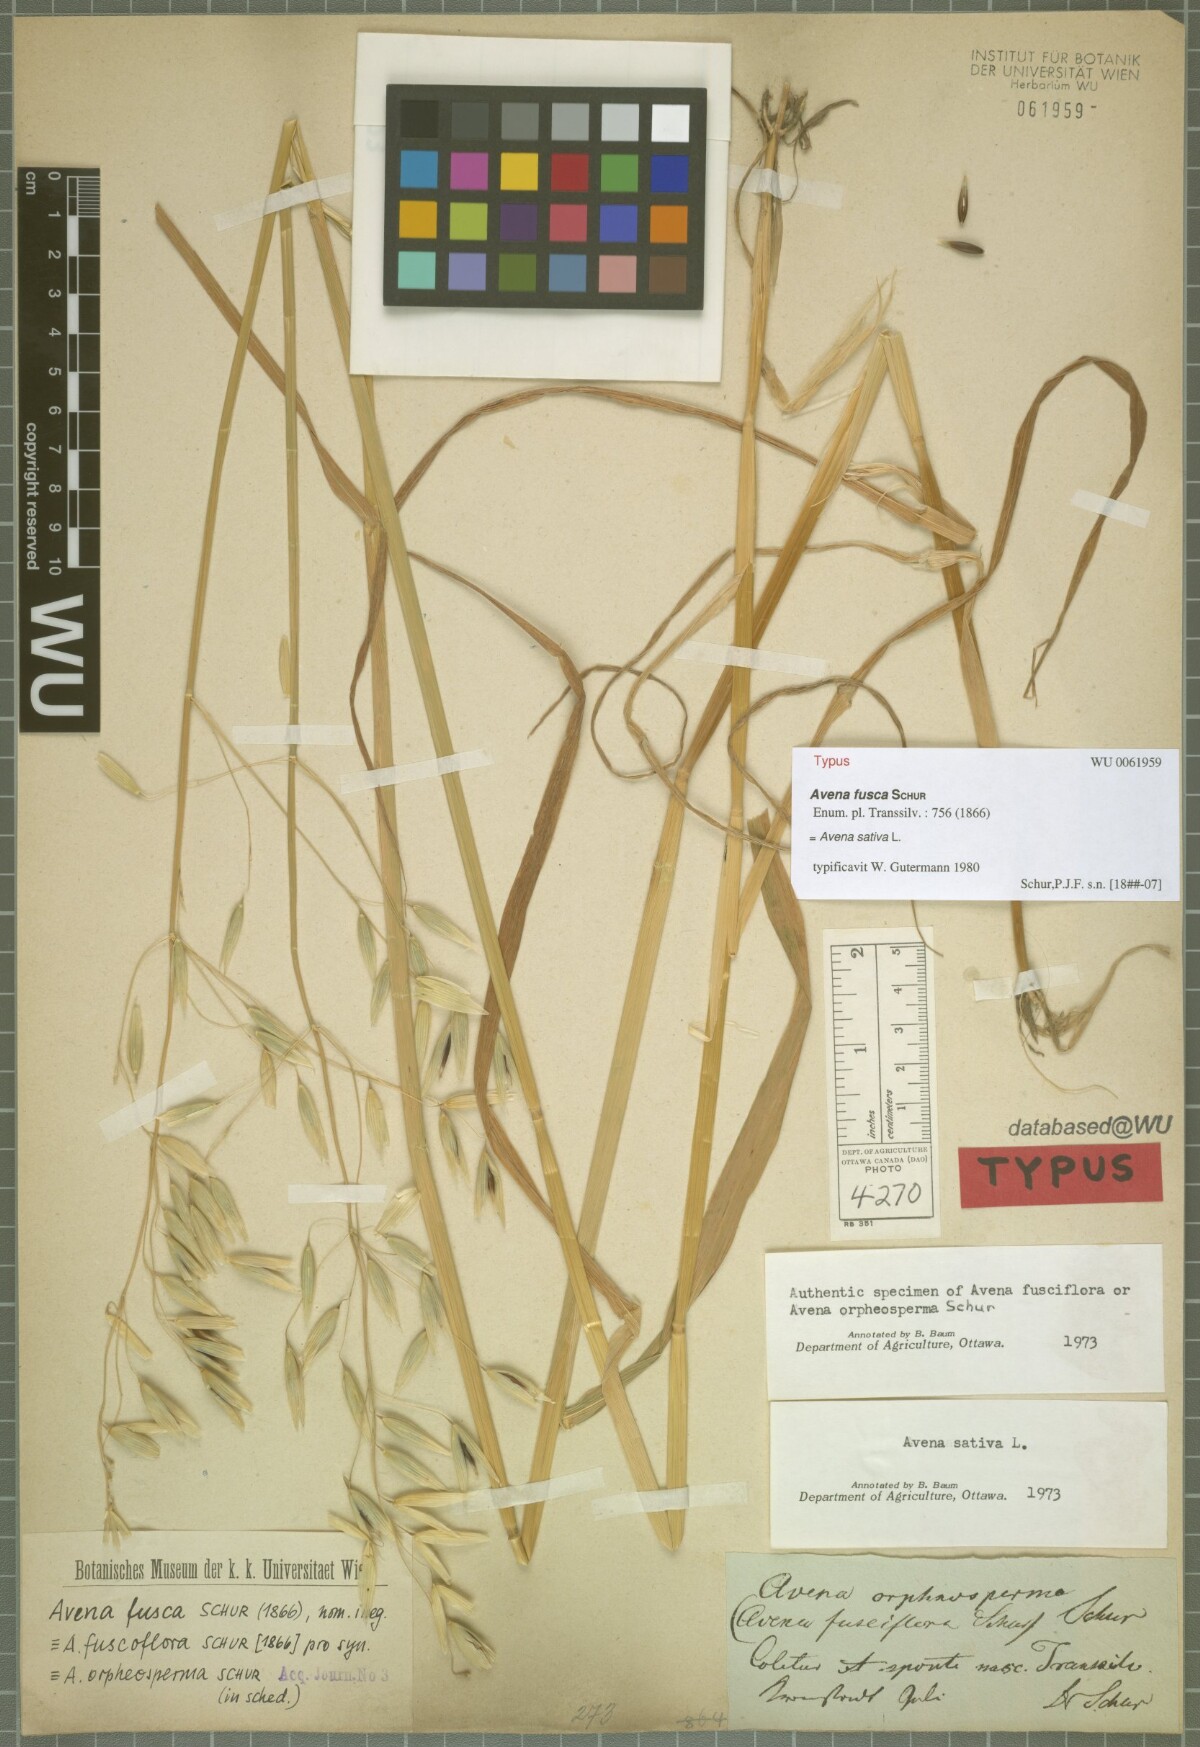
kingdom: Plantae
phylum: Tracheophyta
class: Liliopsida
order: Poales
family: Poaceae
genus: Trisetum
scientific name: Trisetum fuscum
